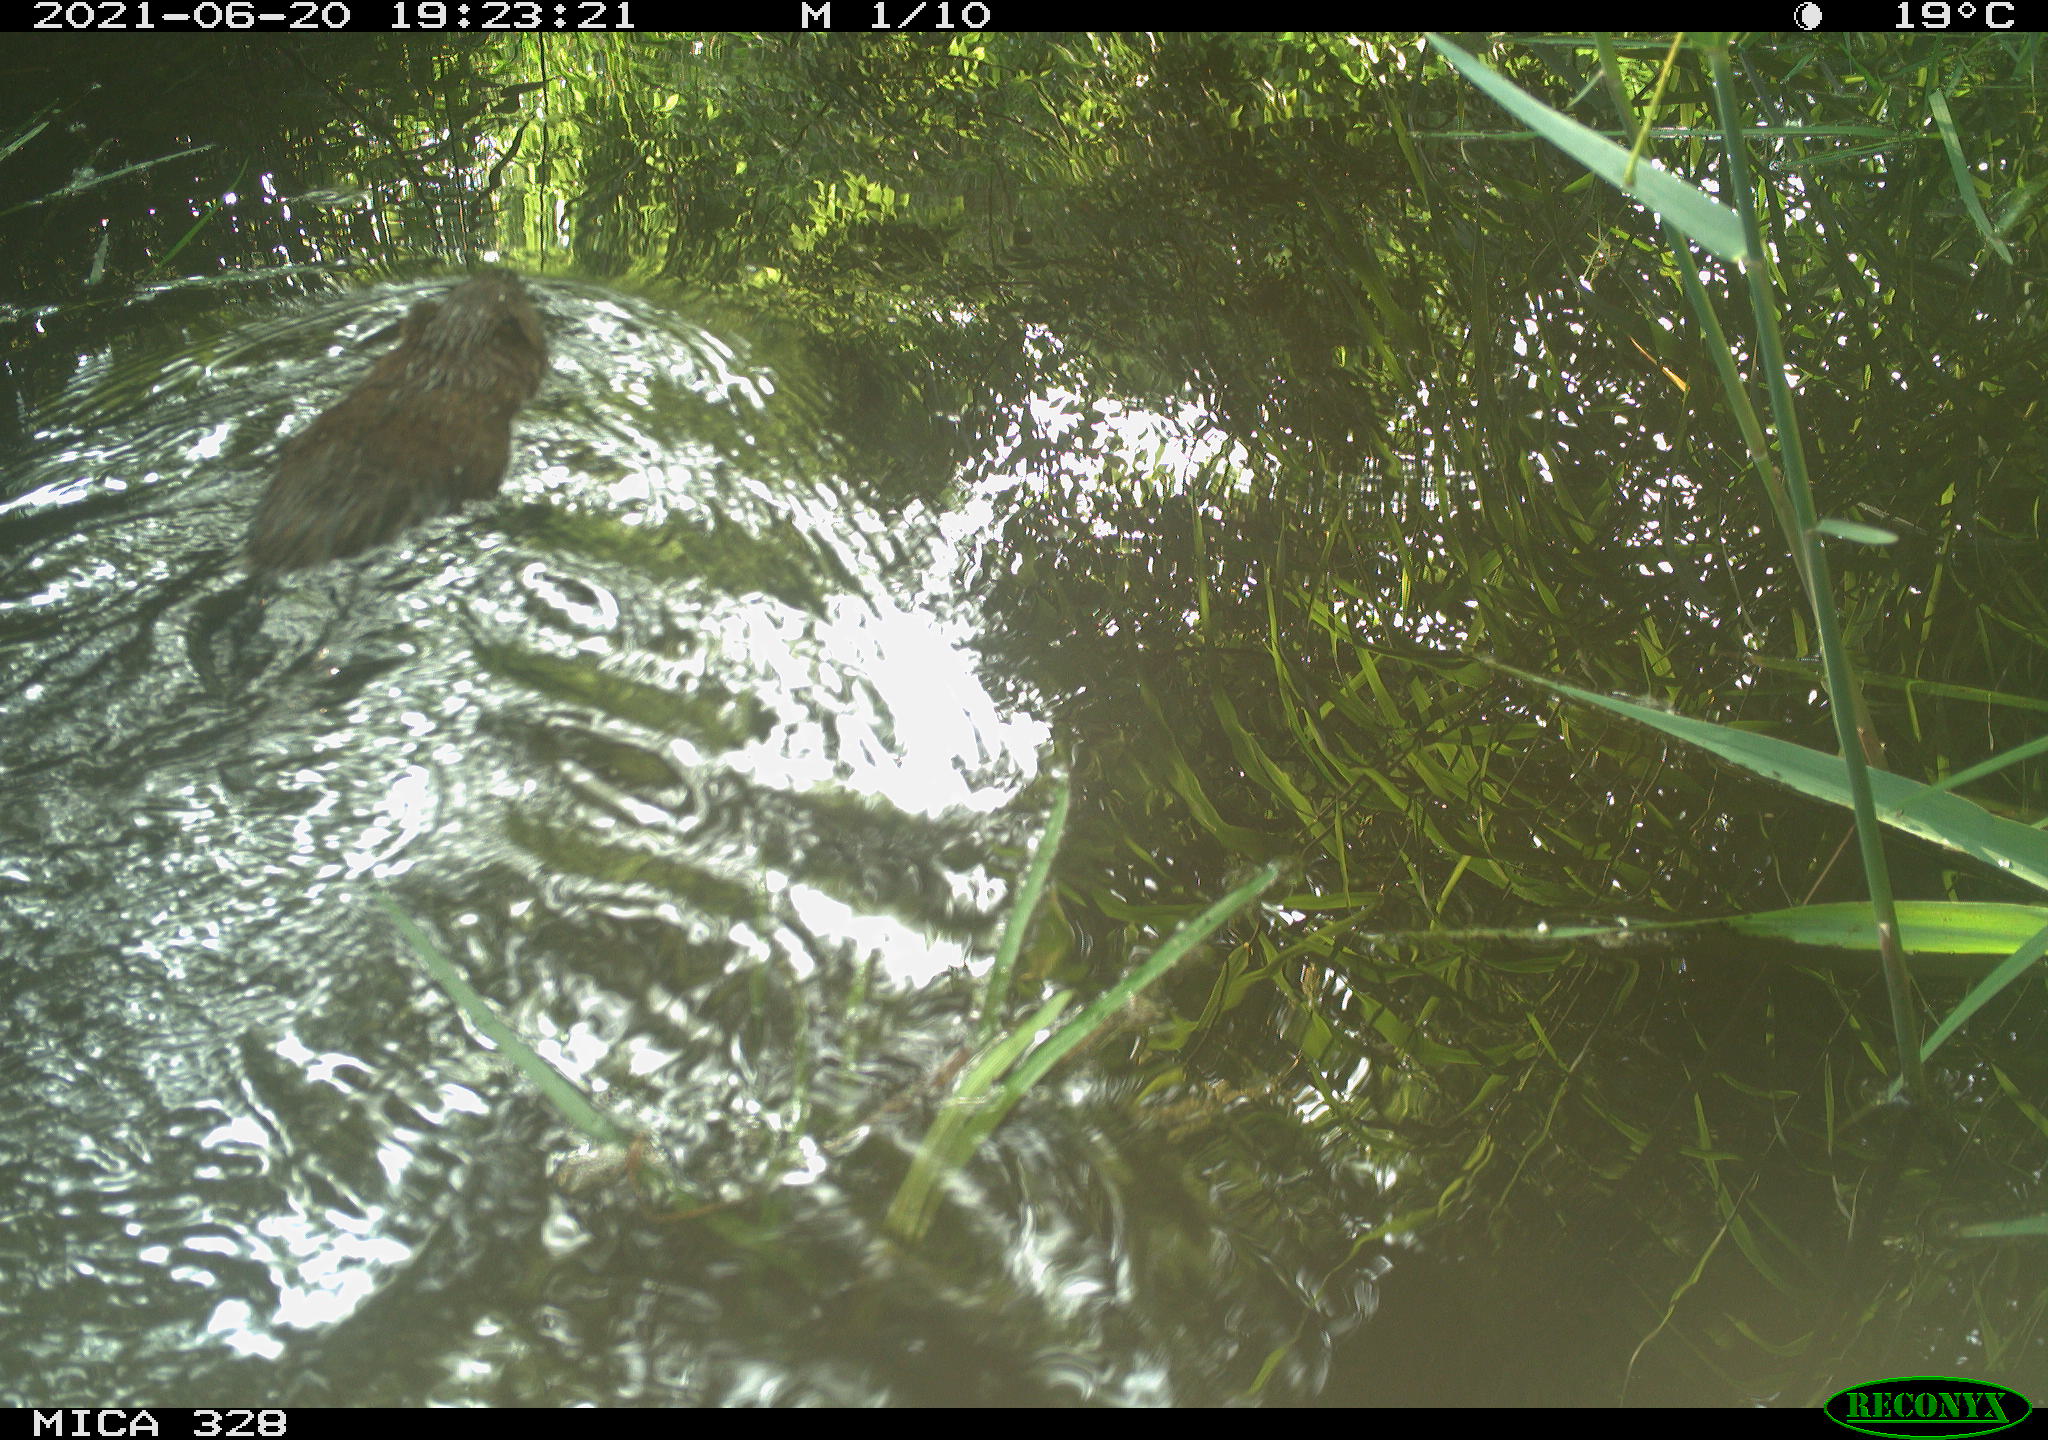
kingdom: Animalia
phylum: Chordata
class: Mammalia
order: Rodentia
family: Cricetidae
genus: Ondatra
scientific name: Ondatra zibethicus
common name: Muskrat
